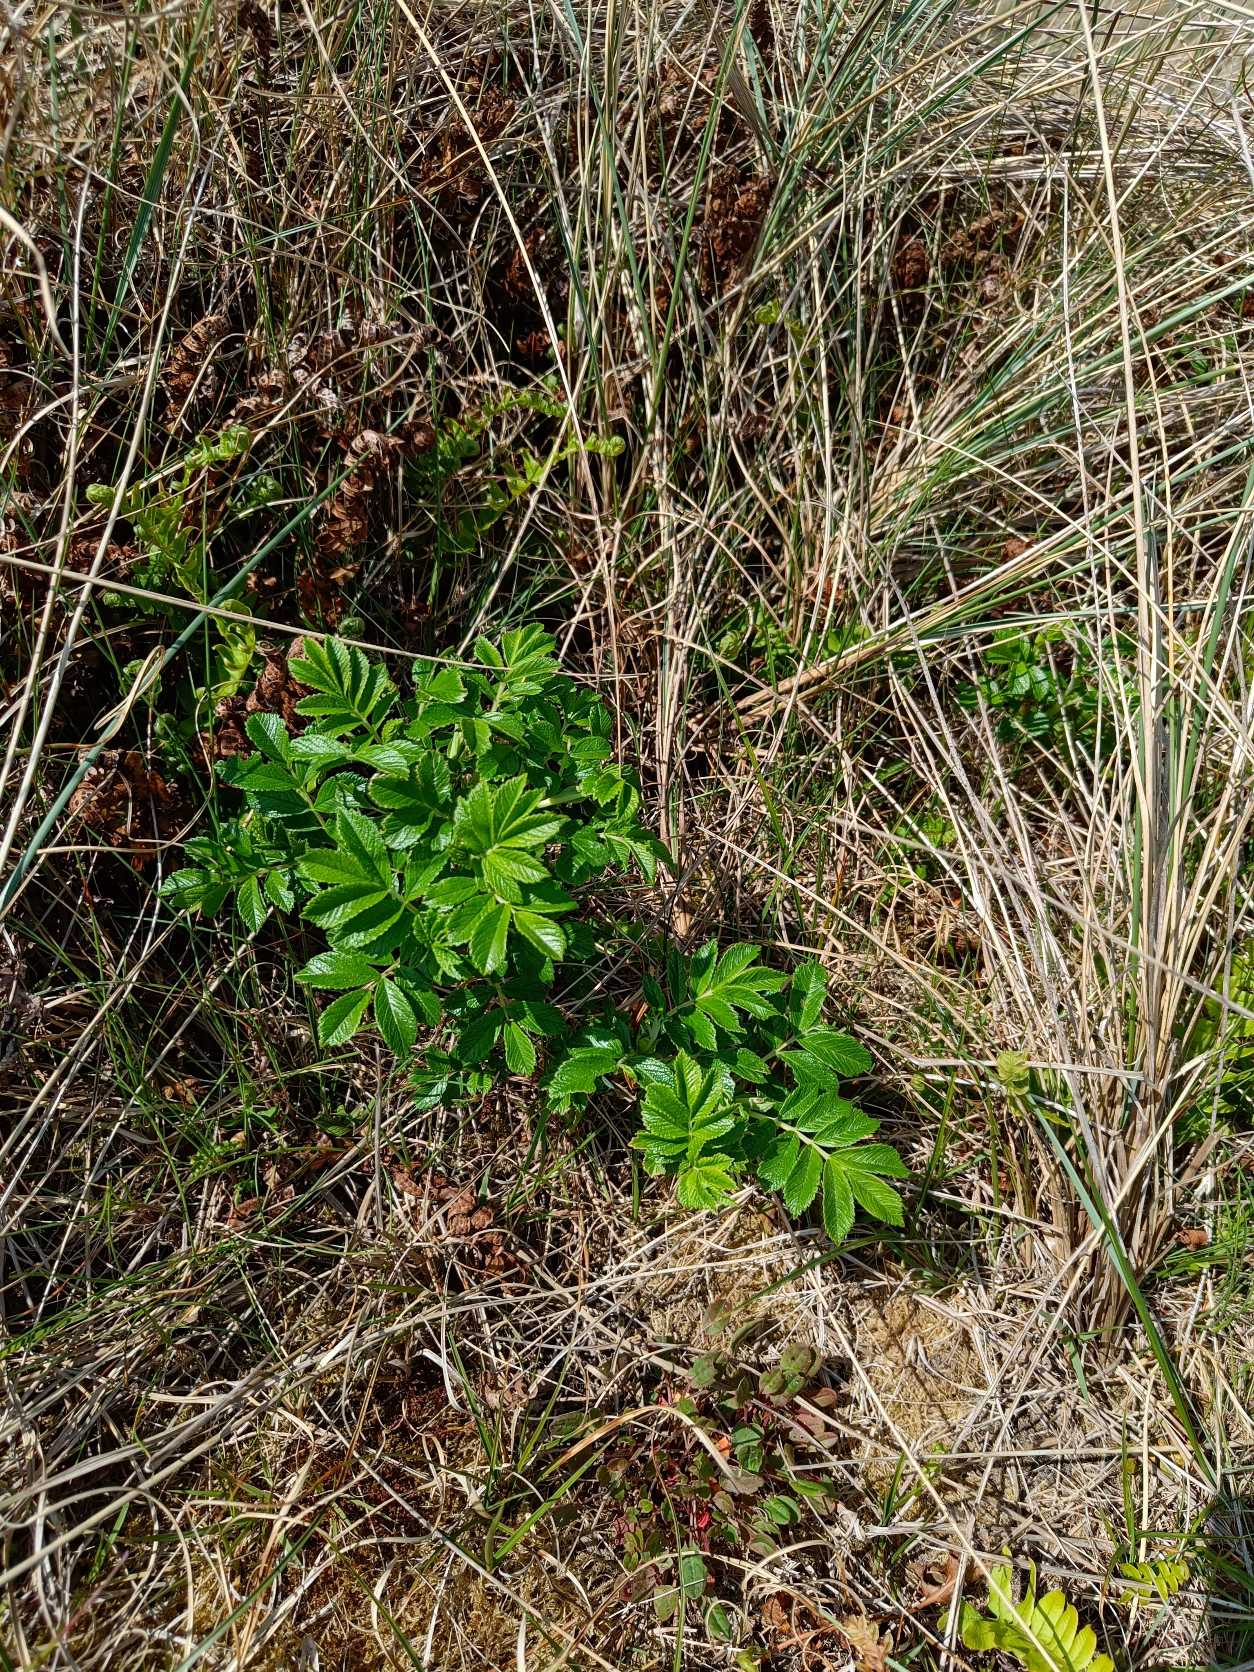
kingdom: Plantae
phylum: Tracheophyta
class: Magnoliopsida
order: Rosales
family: Rosaceae
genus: Rosa
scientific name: Rosa rugosa
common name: Rynket rose
